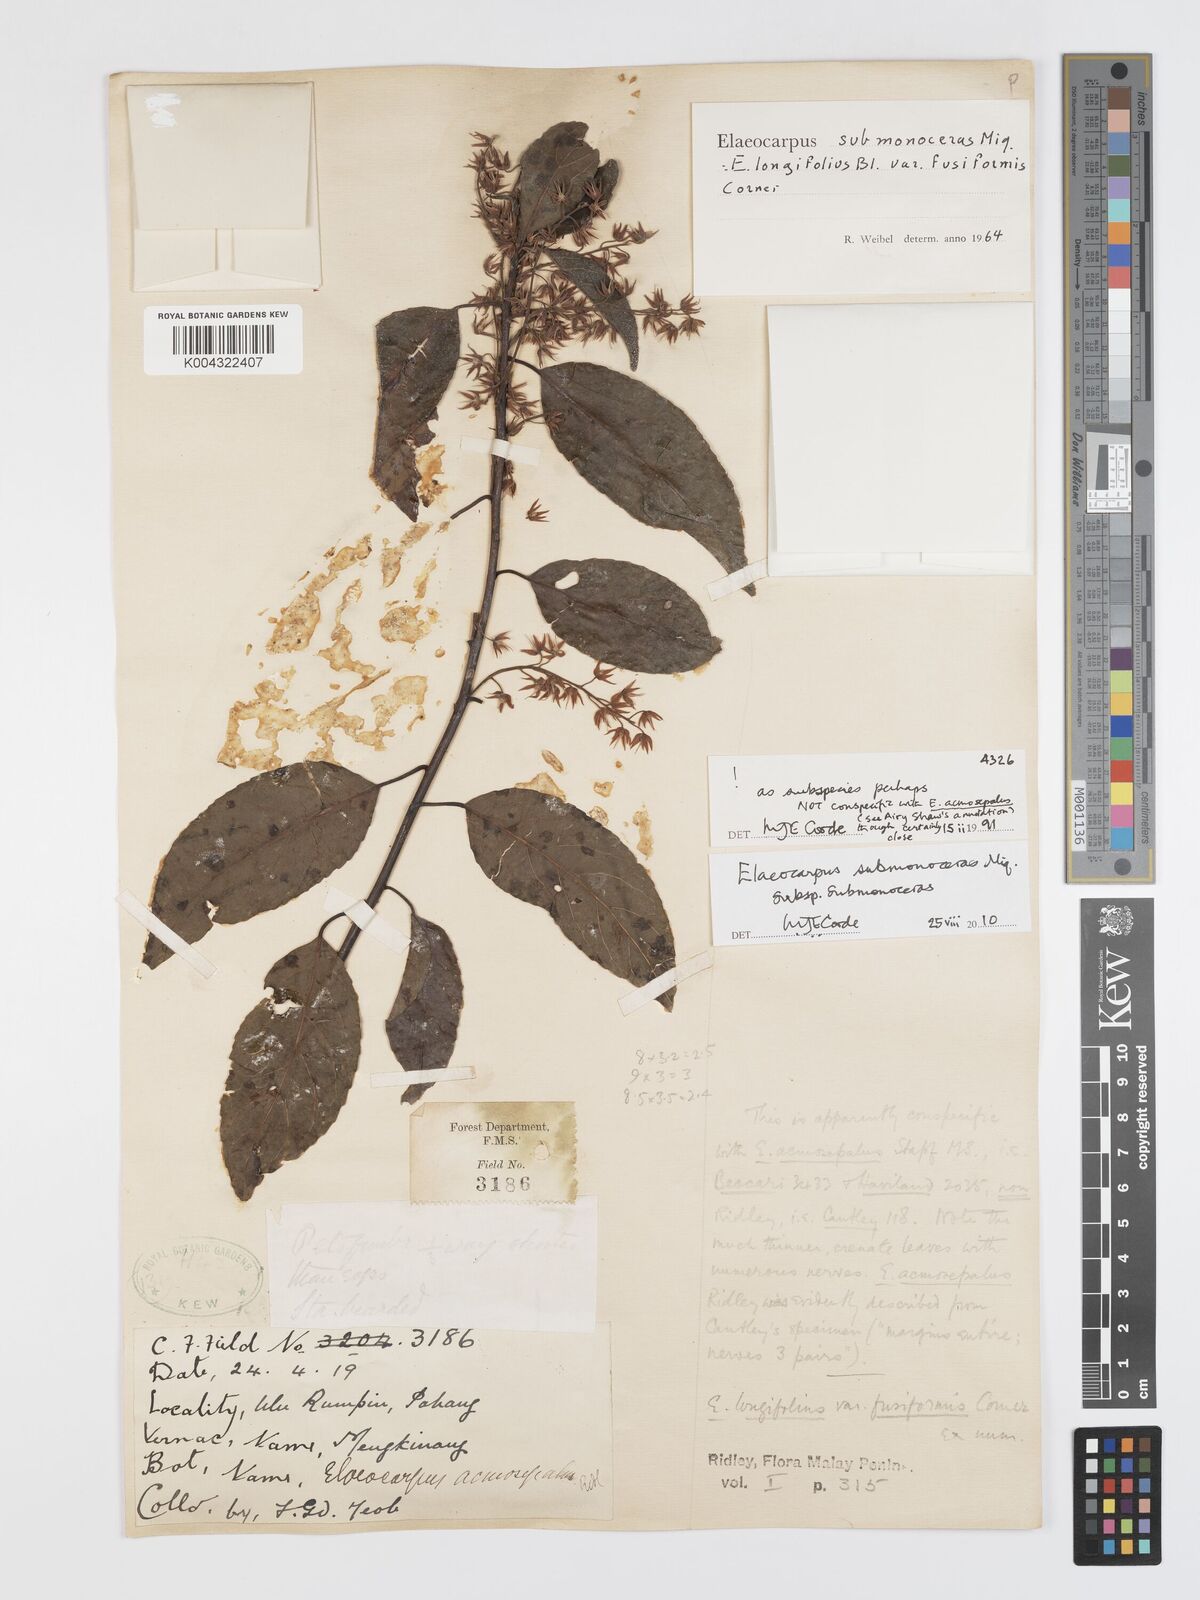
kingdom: Plantae
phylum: Tracheophyta
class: Magnoliopsida
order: Oxalidales
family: Elaeocarpaceae
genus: Elaeocarpus
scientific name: Elaeocarpus submonoceras
